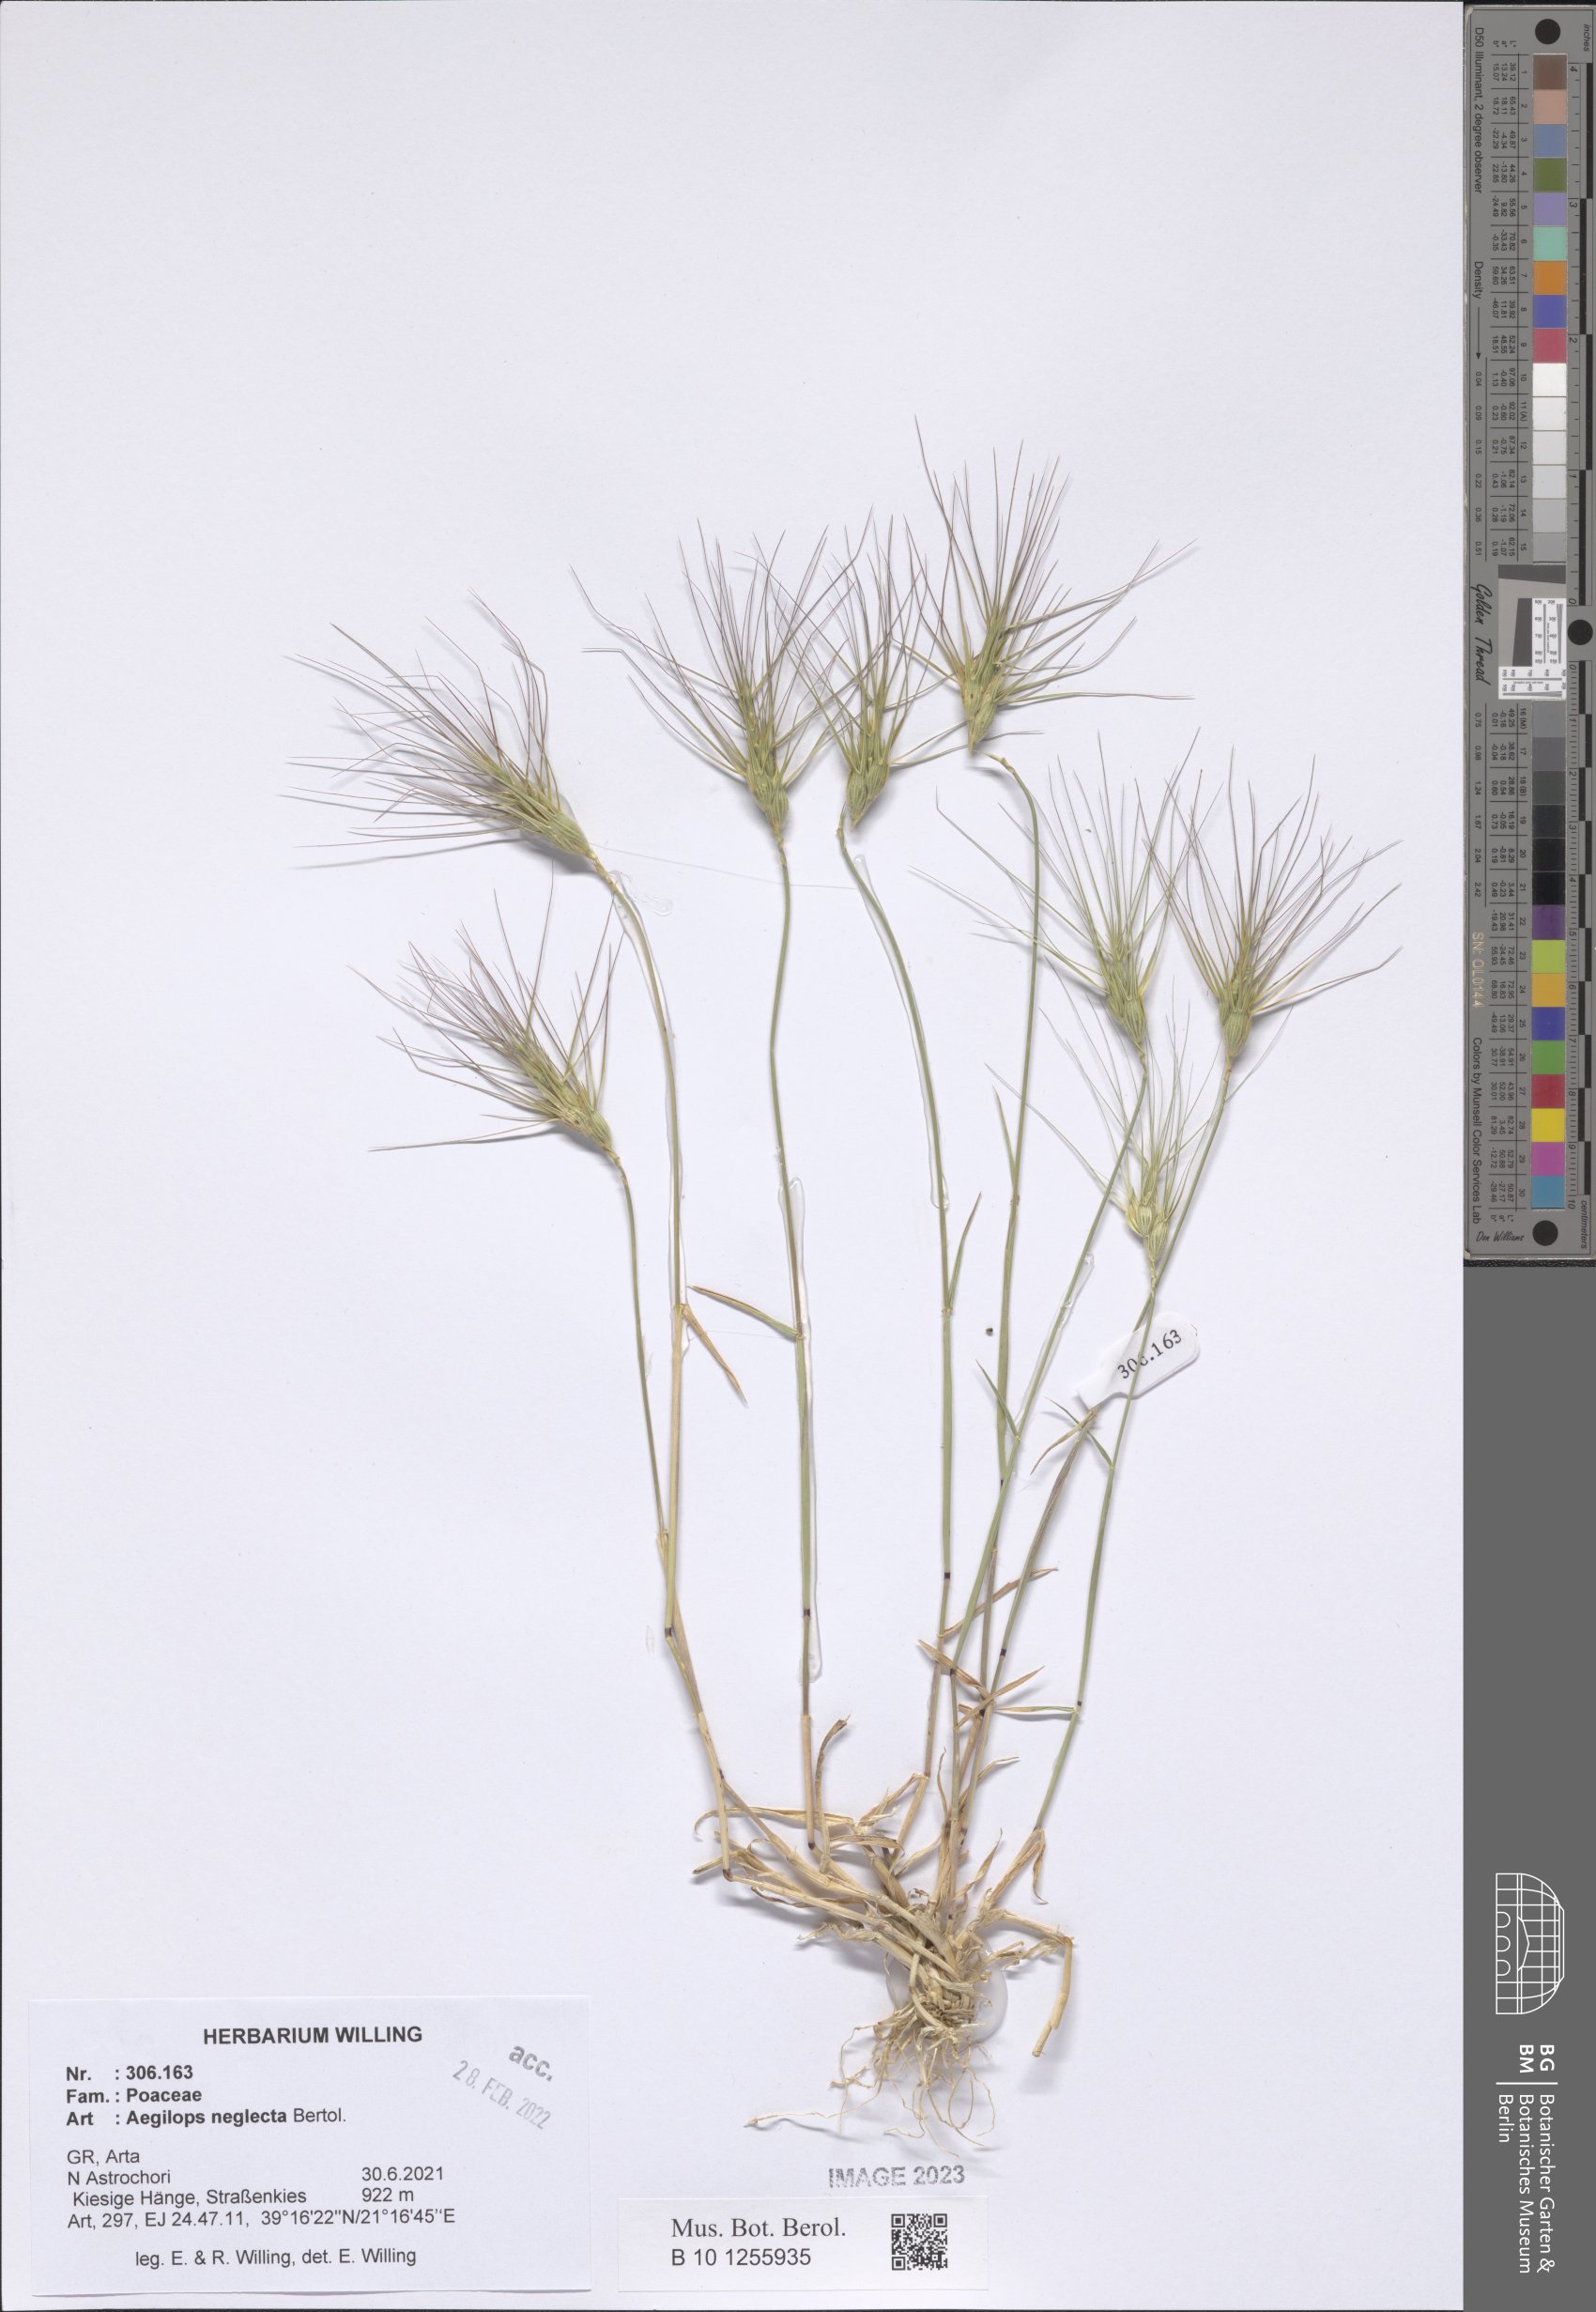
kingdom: Plantae
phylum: Tracheophyta
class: Liliopsida
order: Poales
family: Poaceae
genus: Aegilops
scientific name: Aegilops neglecta
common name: Three-awn goat grass
